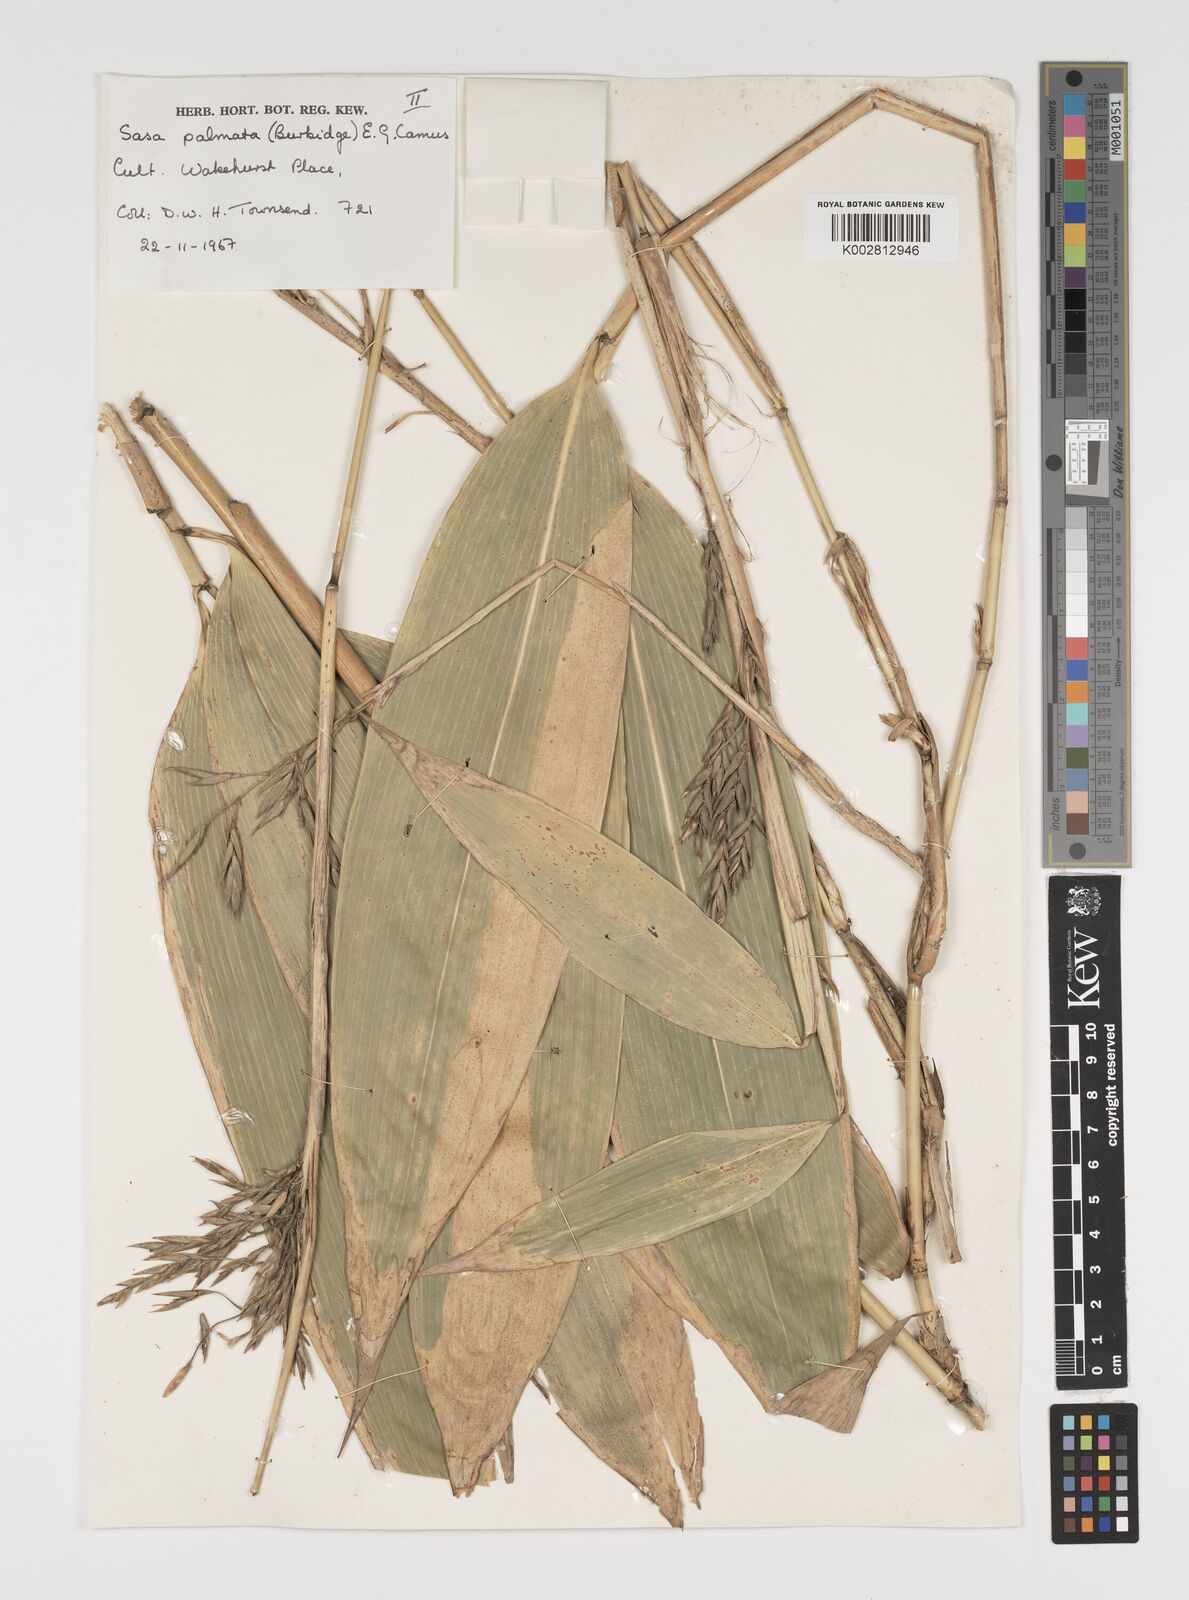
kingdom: Plantae
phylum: Tracheophyta
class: Liliopsida
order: Poales
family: Poaceae
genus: Sasa
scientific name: Sasa palmata
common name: Broad-leaved bamboo
